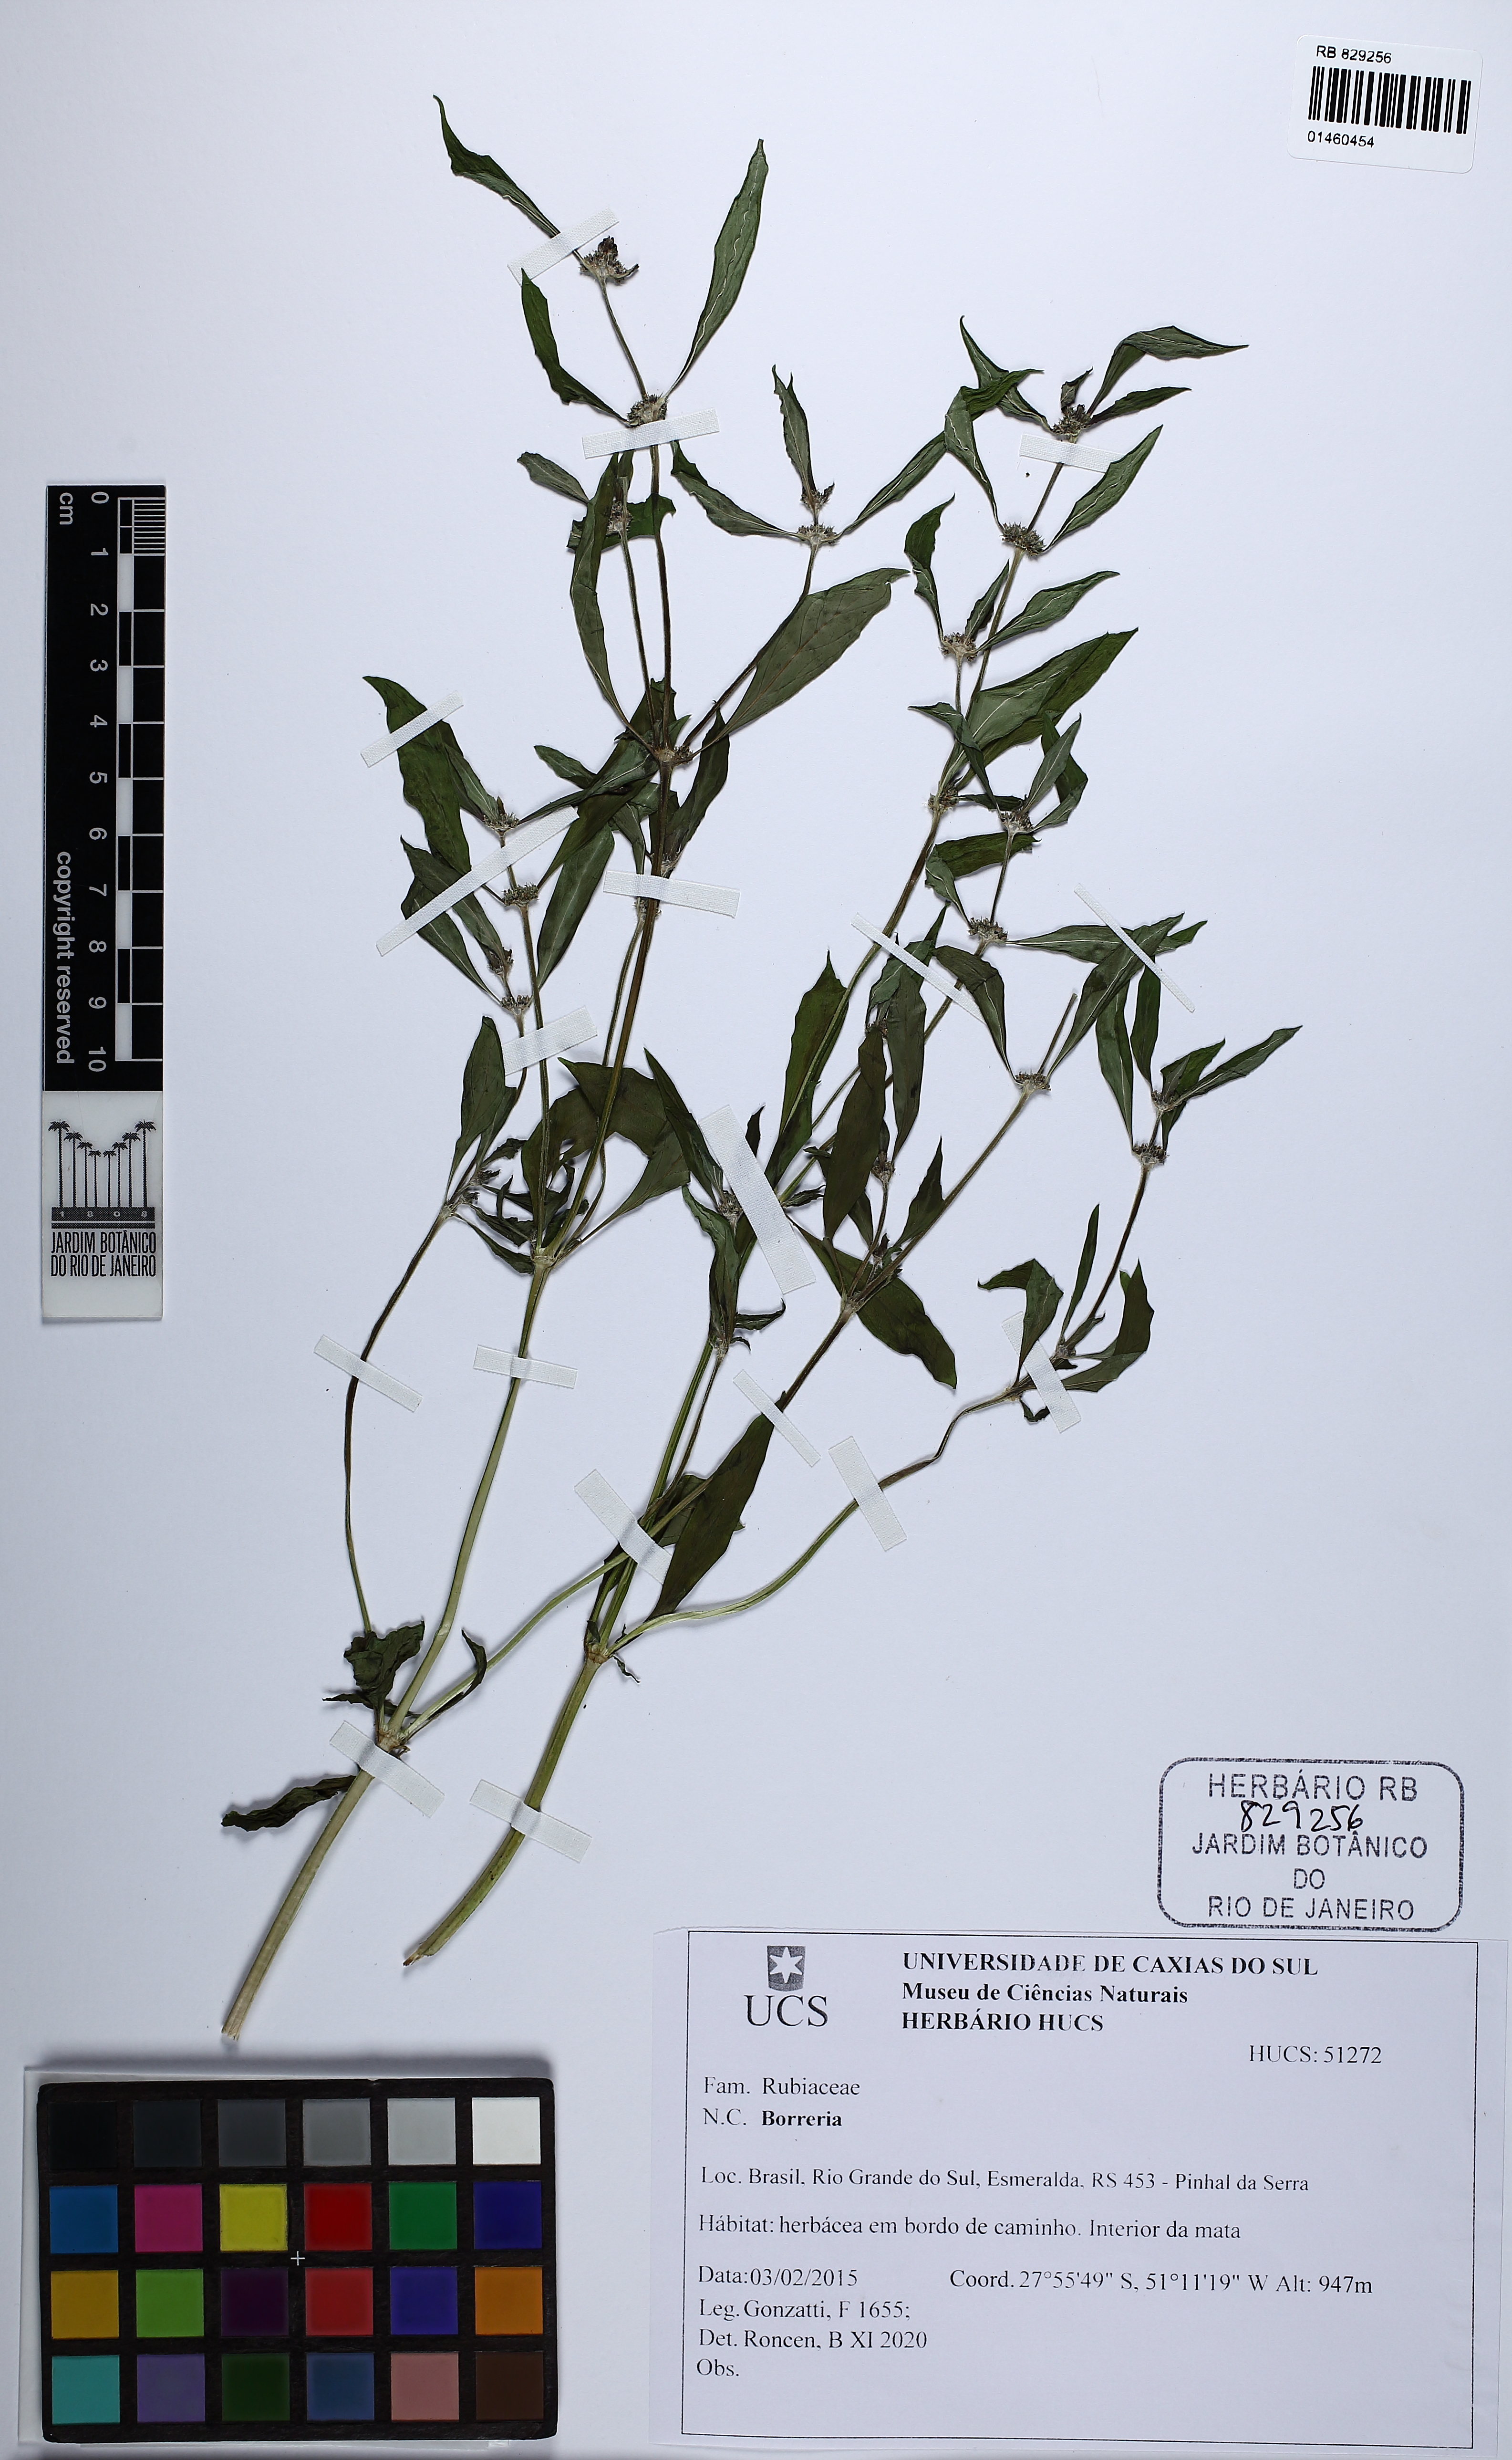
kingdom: Plantae
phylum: Tracheophyta
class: Magnoliopsida
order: Gentianales
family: Rubiaceae
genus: Mitracarpus
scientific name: Mitracarpus
